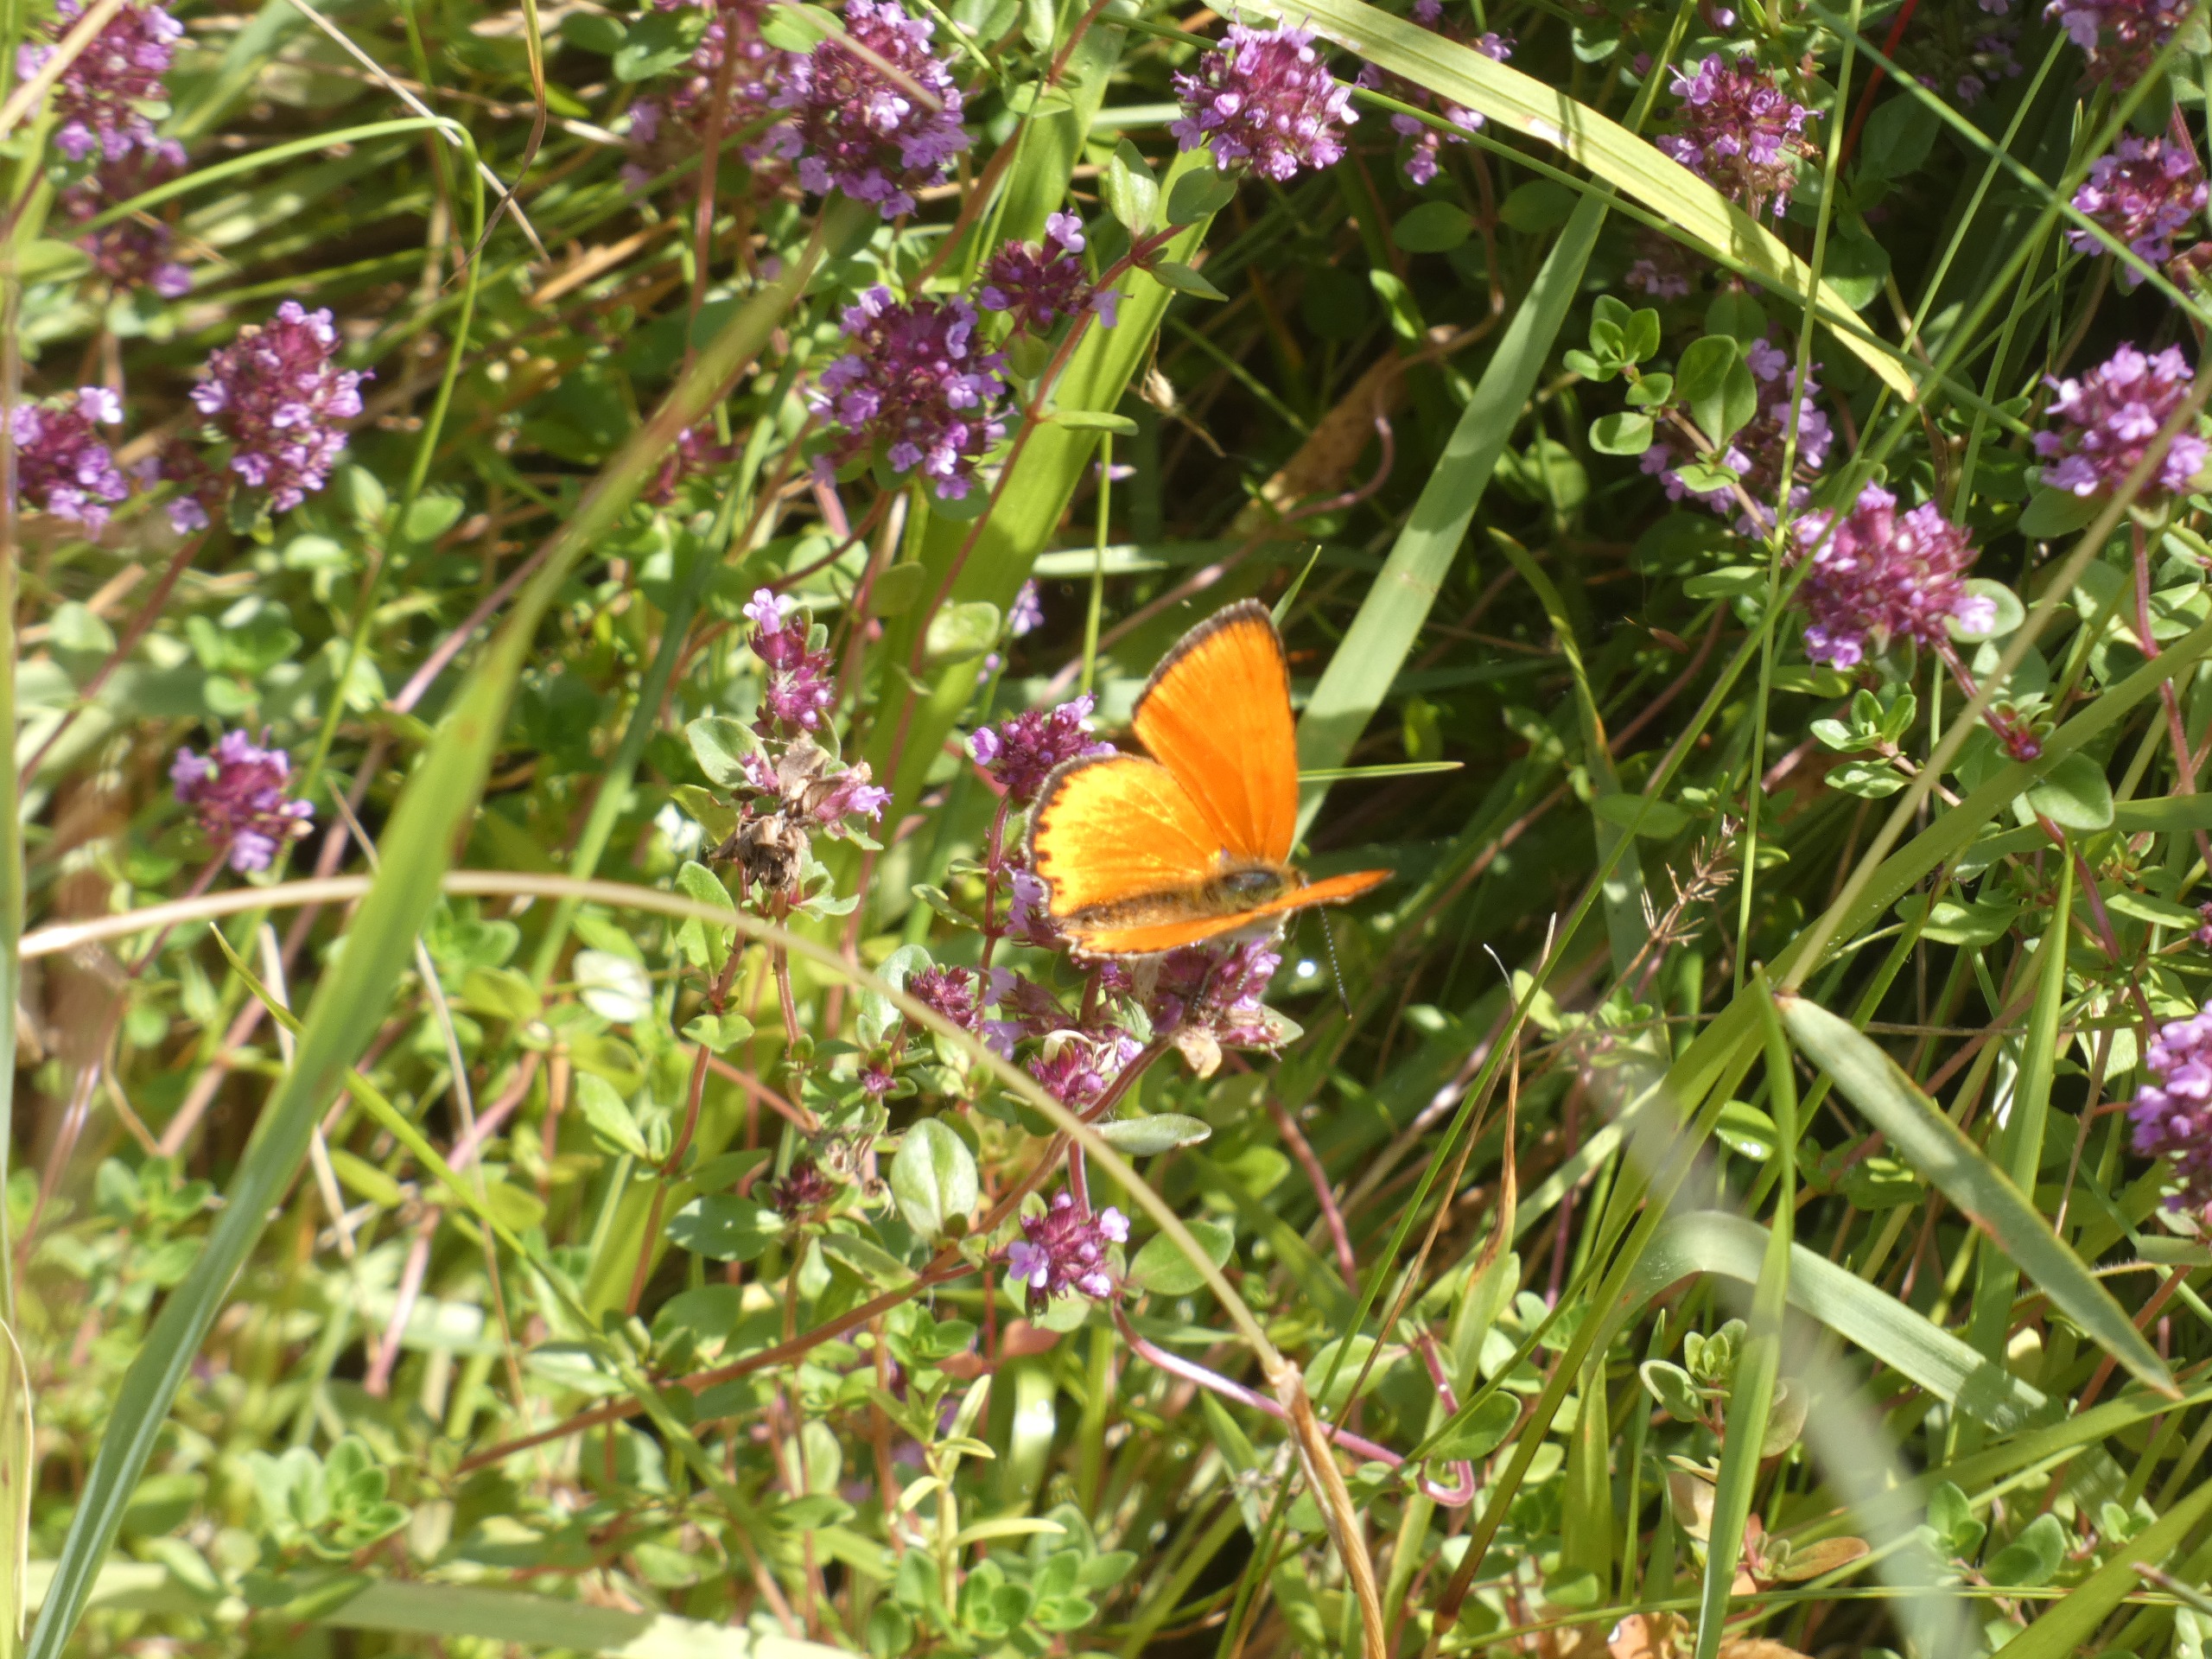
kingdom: Animalia
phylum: Arthropoda
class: Insecta
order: Lepidoptera
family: Lycaenidae
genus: Lycaena
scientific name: Lycaena virgaureae
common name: Dukatsommerfugl
